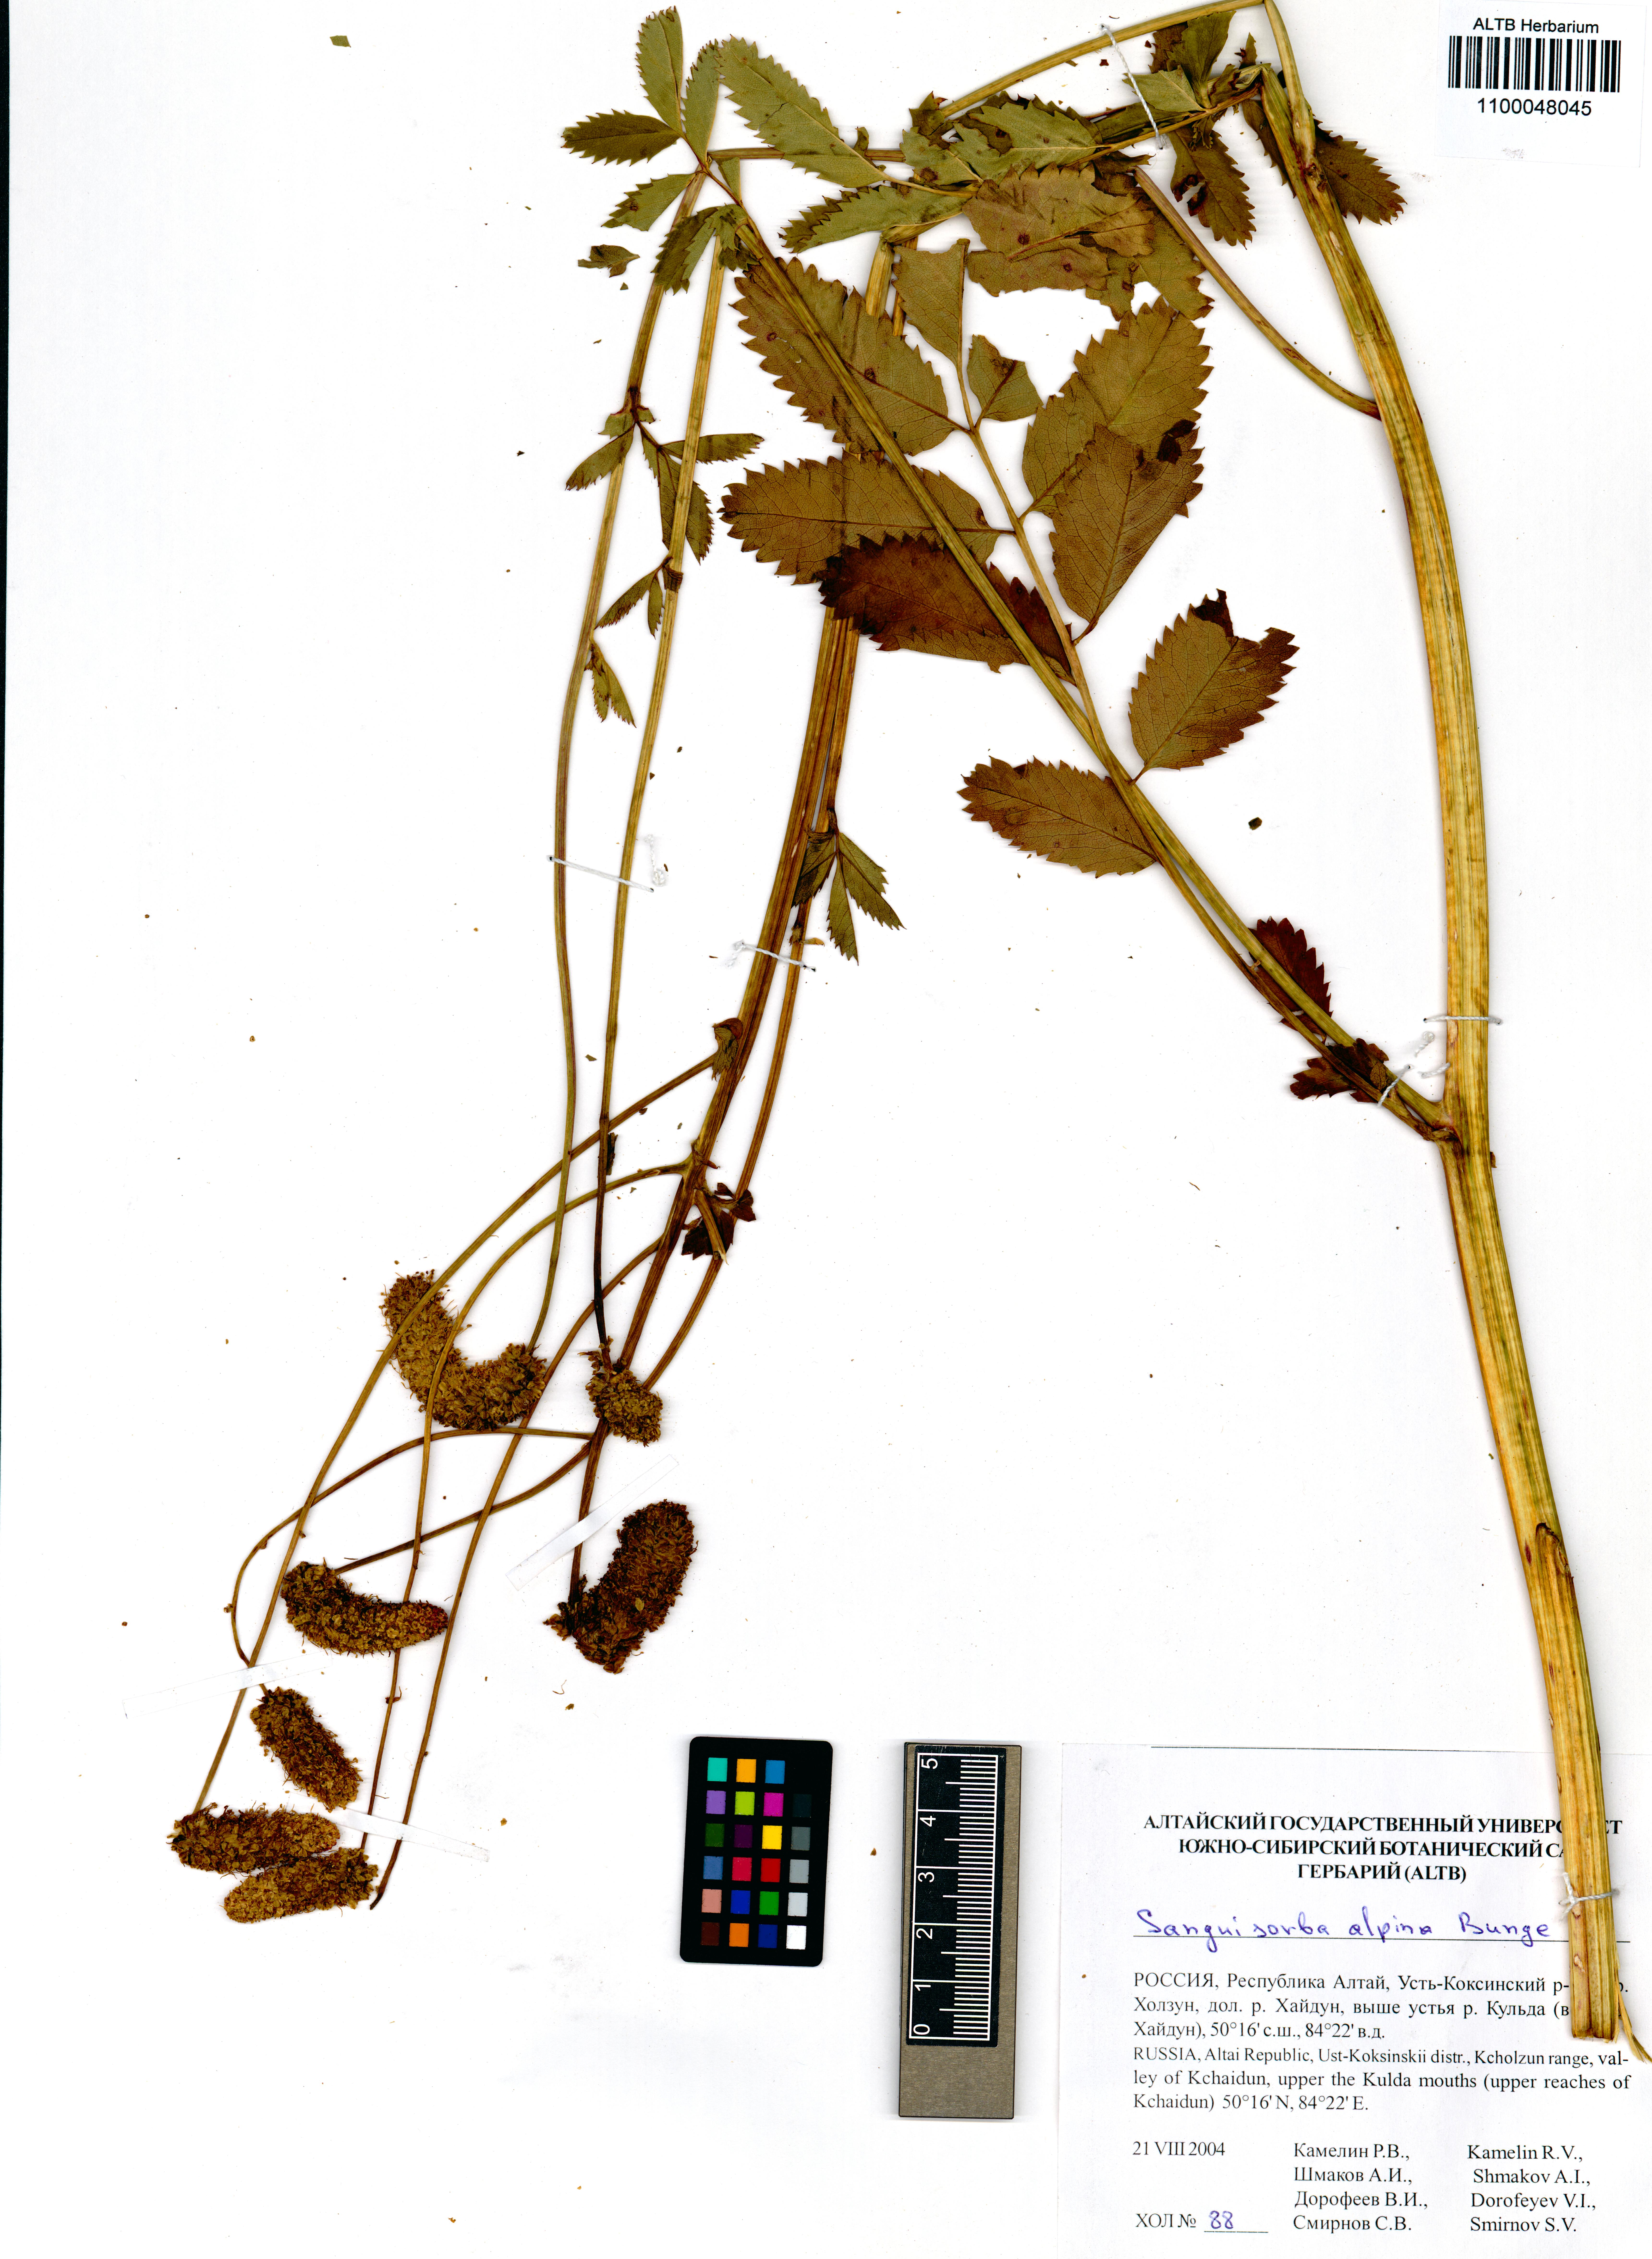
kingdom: Plantae
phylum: Tracheophyta
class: Magnoliopsida
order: Rosales
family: Rosaceae
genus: Sanguisorba
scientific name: Sanguisorba alpina
